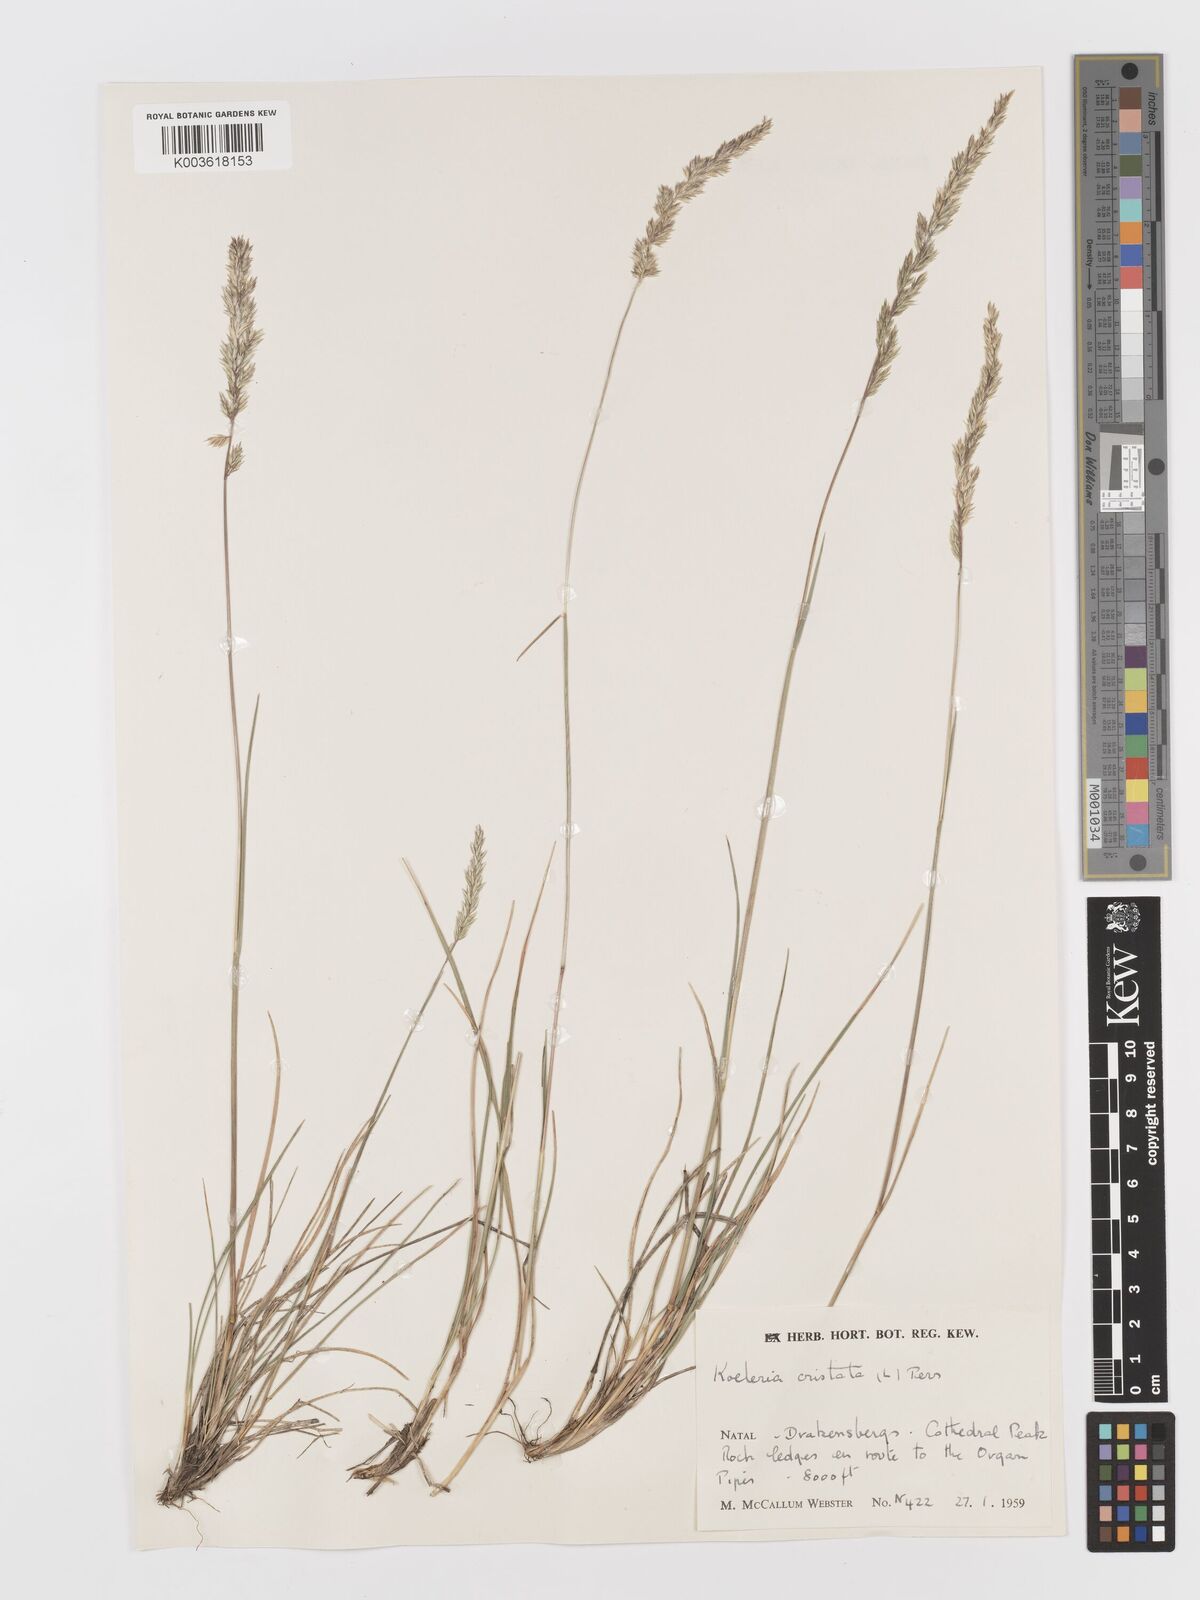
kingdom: Plantae
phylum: Tracheophyta
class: Liliopsida
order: Poales
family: Poaceae
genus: Koeleria
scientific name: Koeleria capensis
